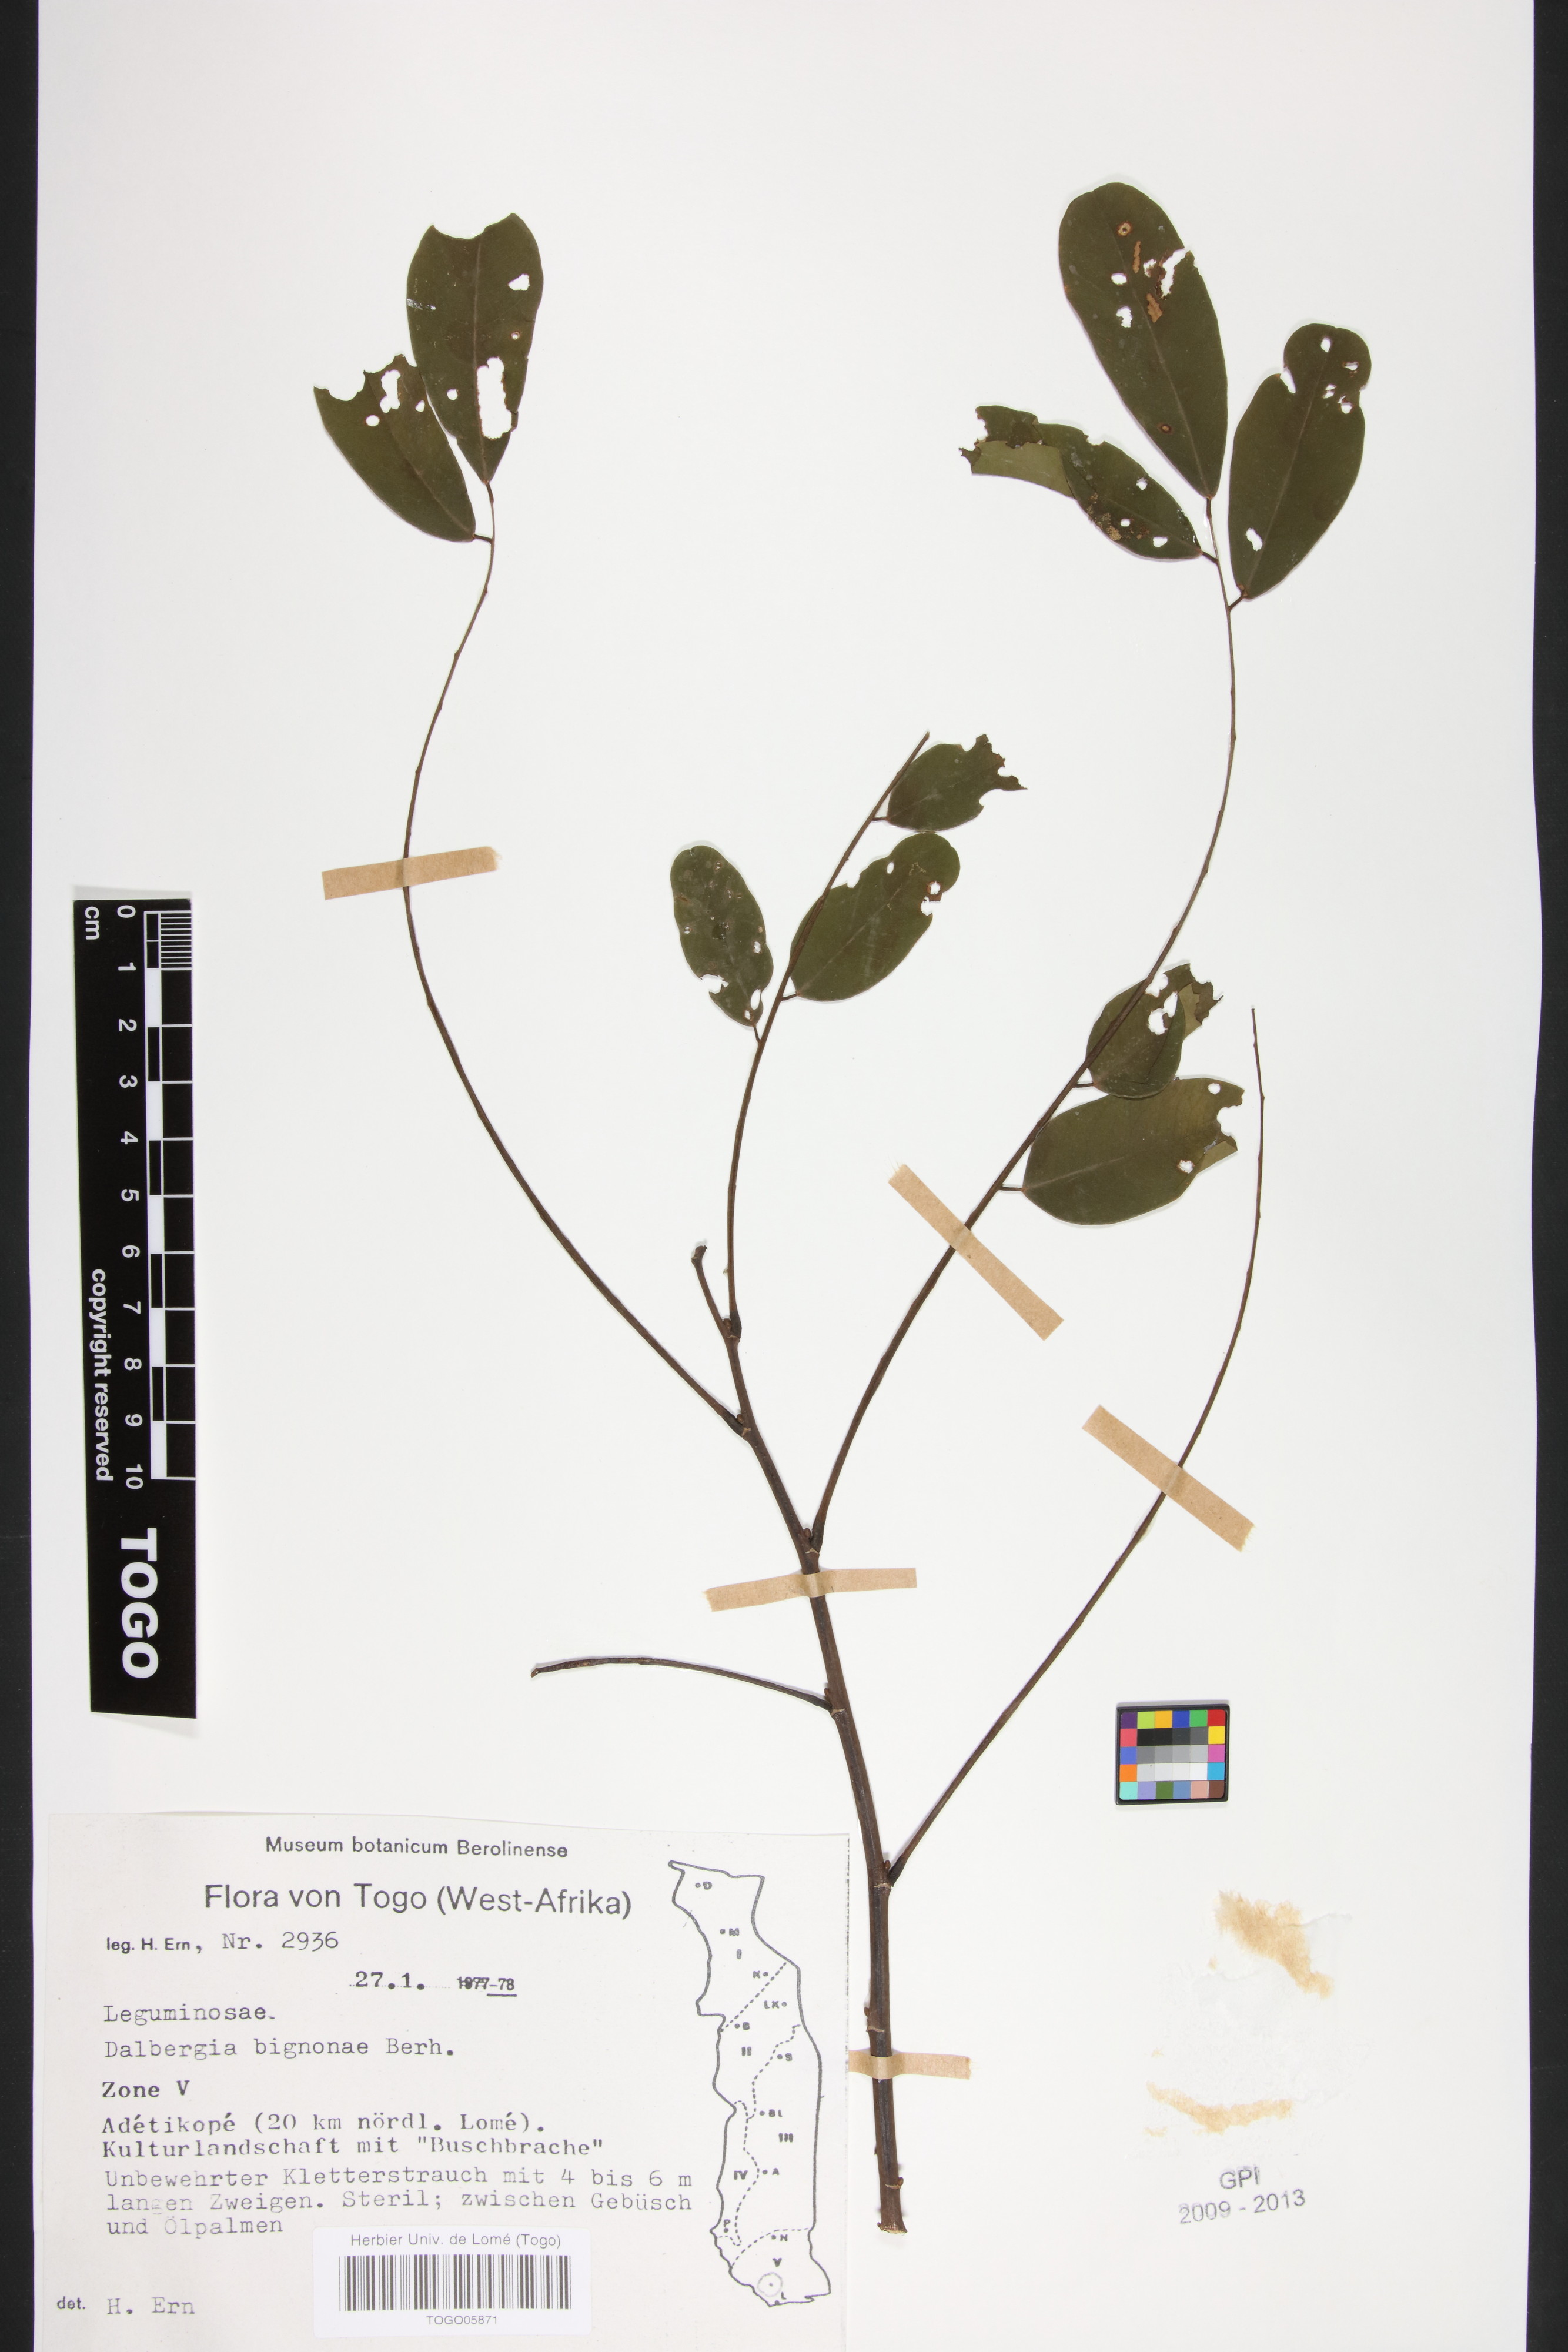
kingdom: Plantae
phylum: Tracheophyta
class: Magnoliopsida
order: Fabales
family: Fabaceae
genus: Dalbergia
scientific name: Dalbergia mayumbensis
